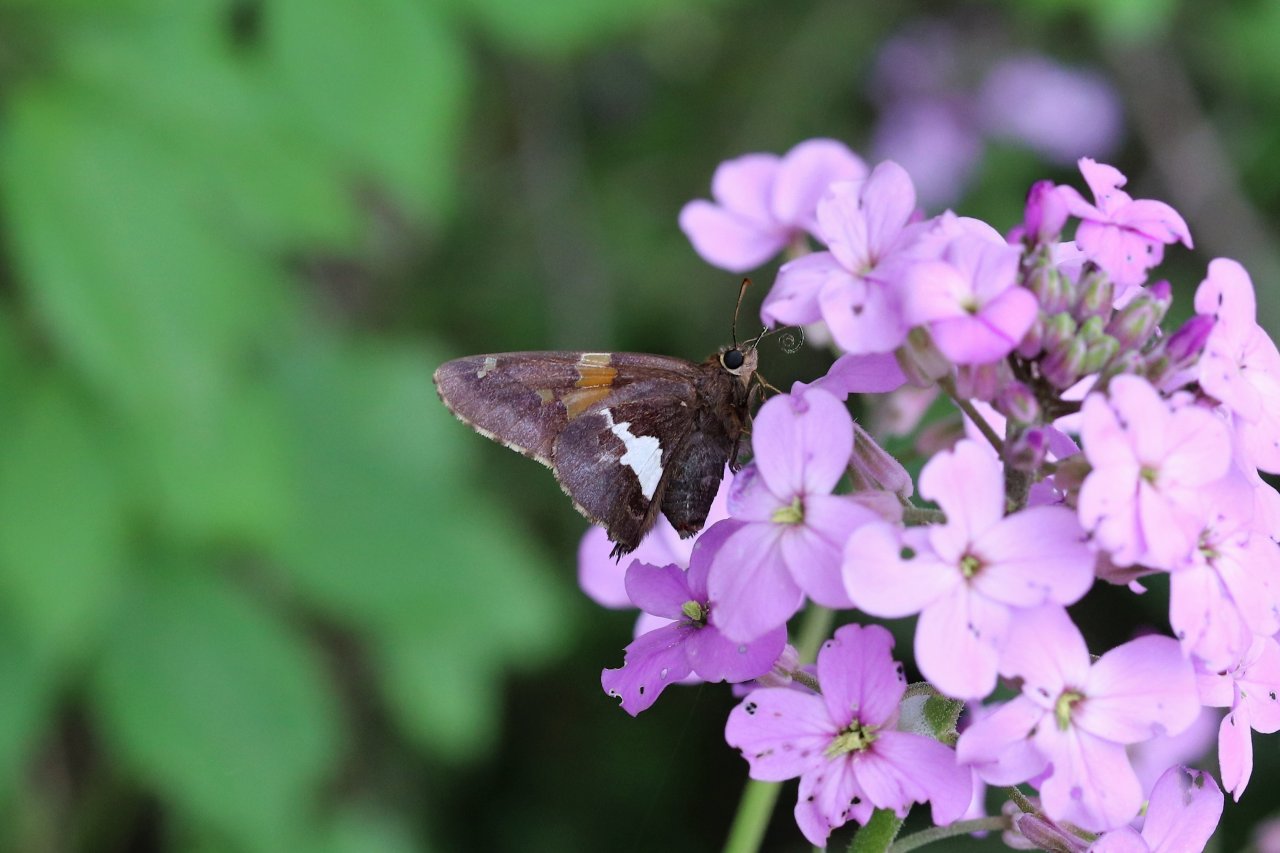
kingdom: Animalia
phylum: Arthropoda
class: Insecta
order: Lepidoptera
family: Hesperiidae
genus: Epargyreus
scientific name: Epargyreus clarus
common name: Silver-spotted Skipper
